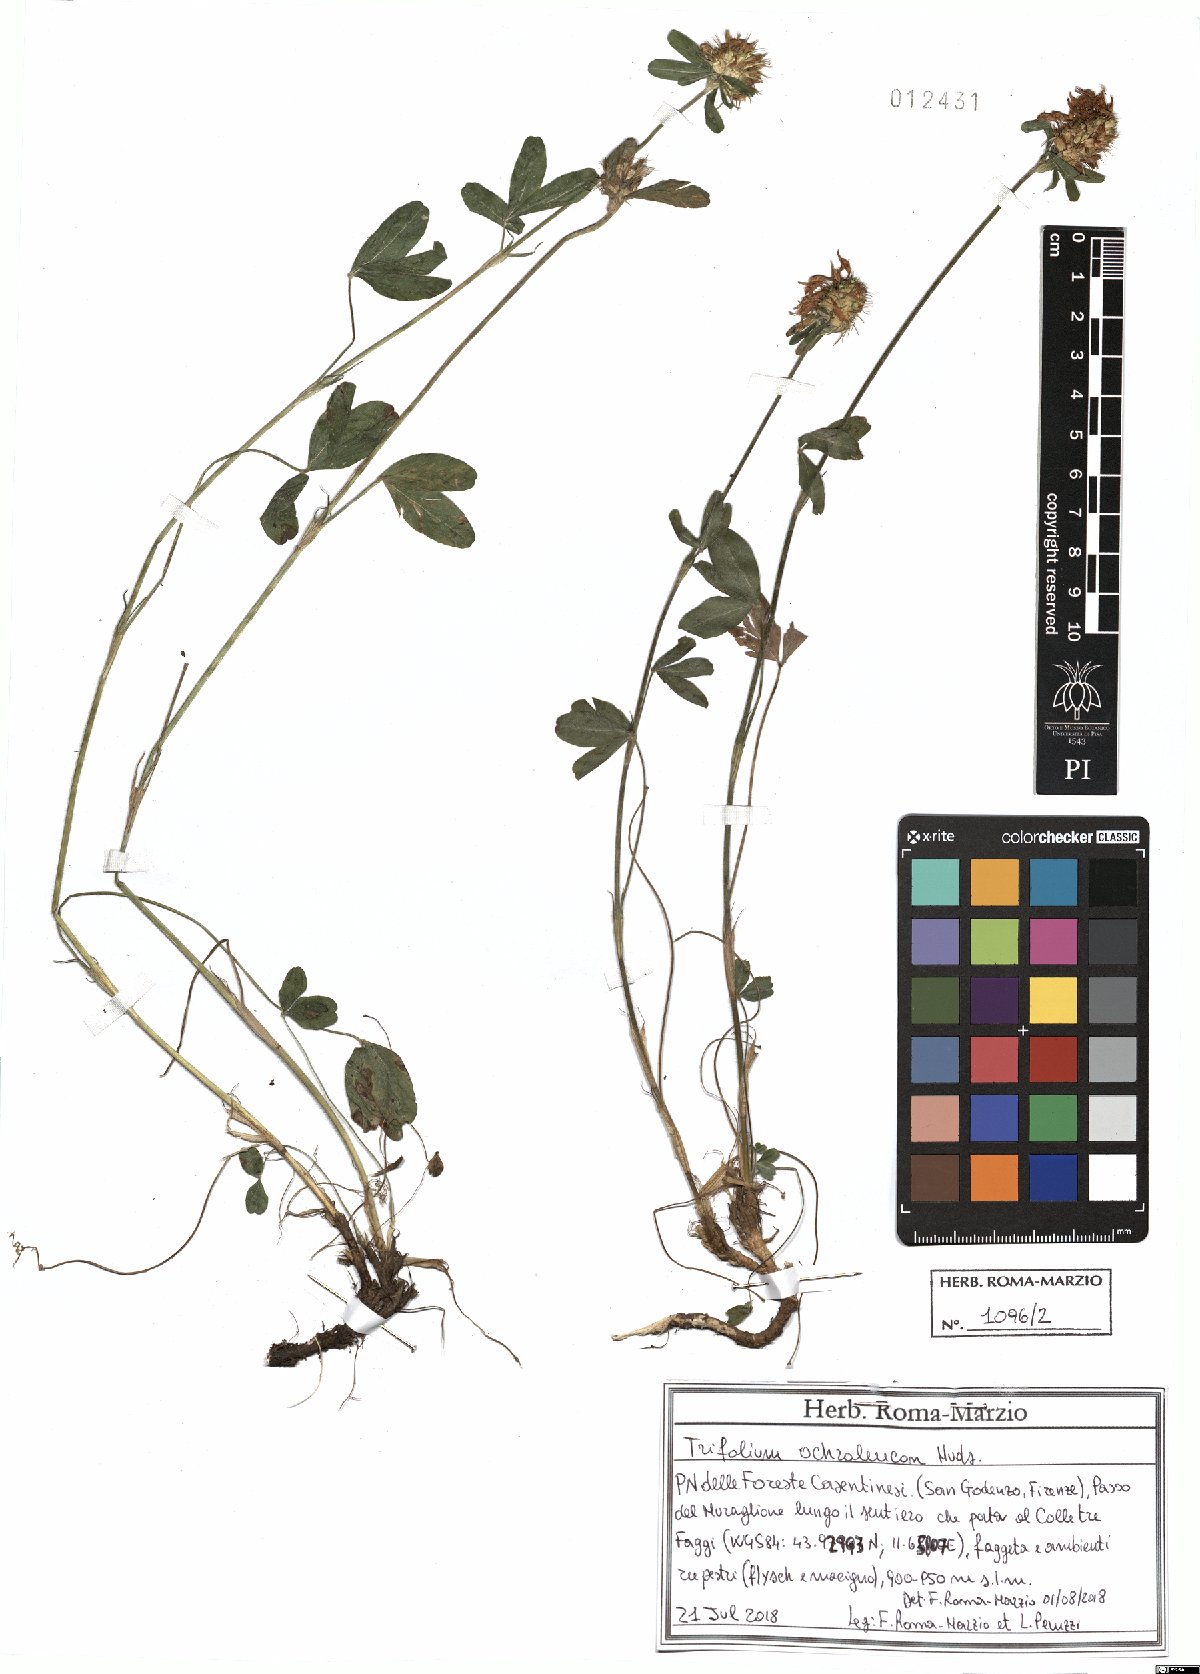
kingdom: Plantae
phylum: Tracheophyta
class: Magnoliopsida
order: Fabales
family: Fabaceae
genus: Trifolium
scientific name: Trifolium ochroleucon
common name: Sulphur clover
